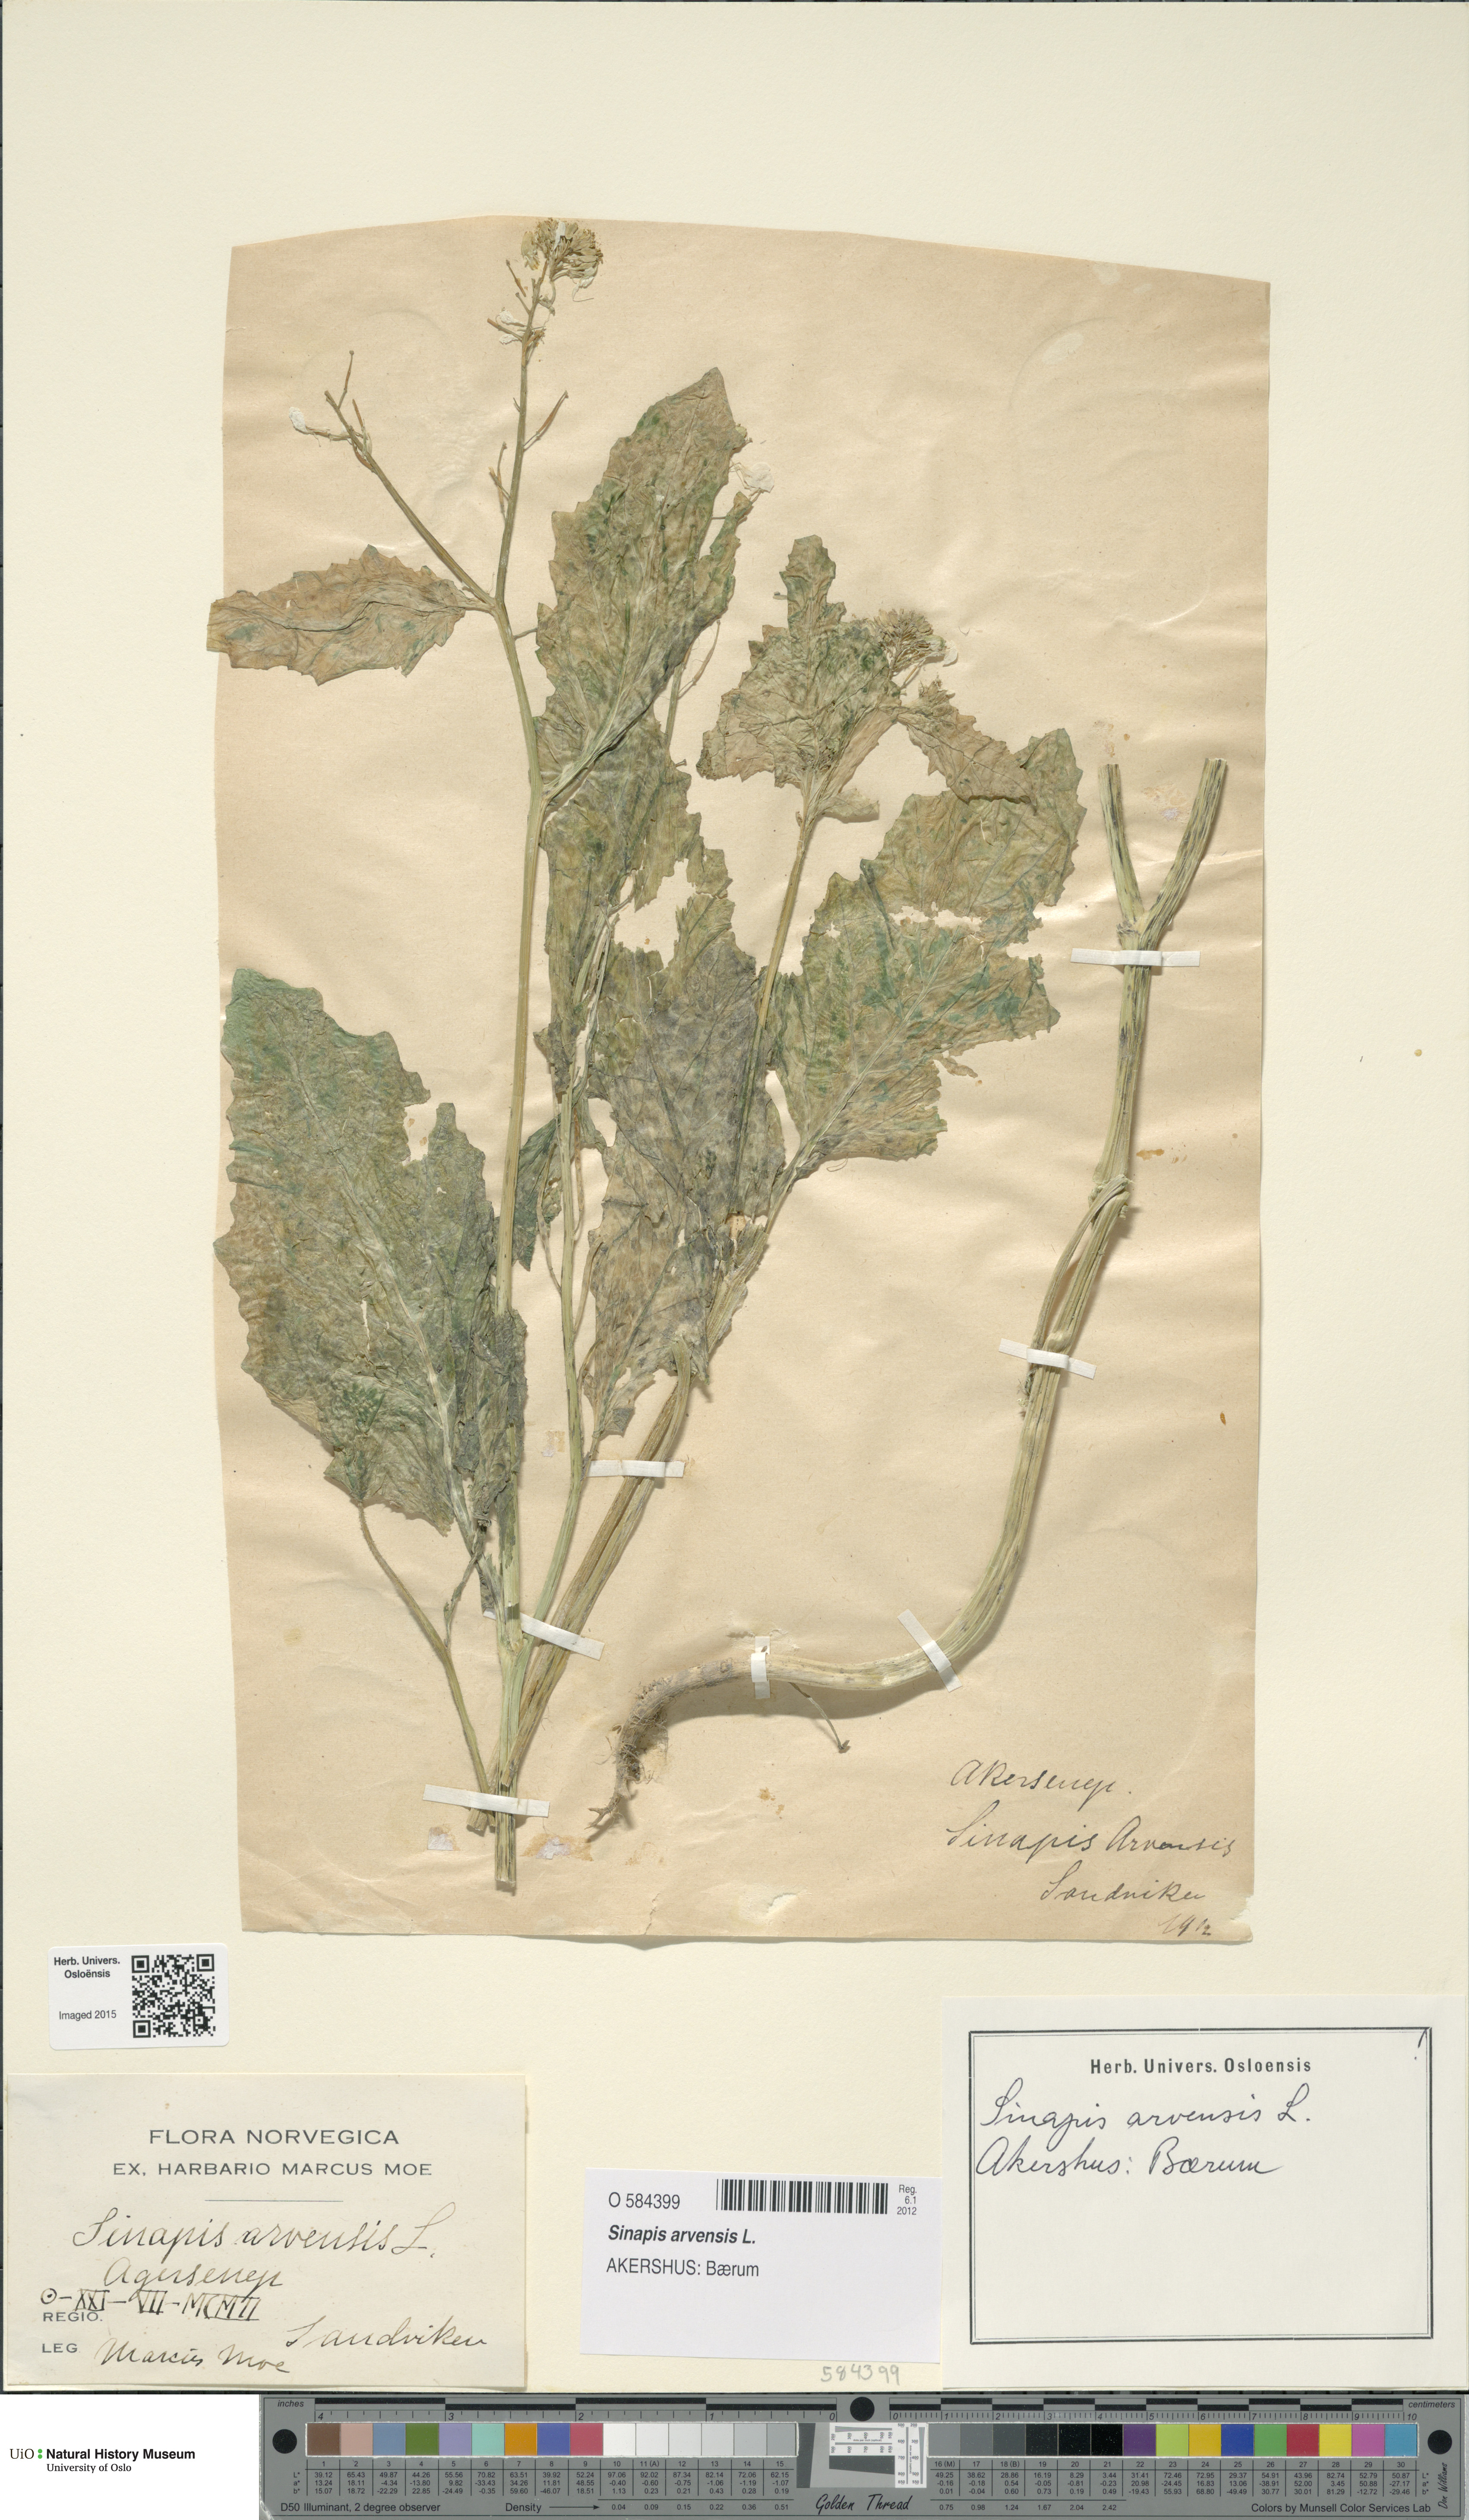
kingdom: Plantae
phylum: Tracheophyta
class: Magnoliopsida
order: Brassicales
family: Brassicaceae
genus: Sinapis
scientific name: Sinapis arvensis
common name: Charlock
